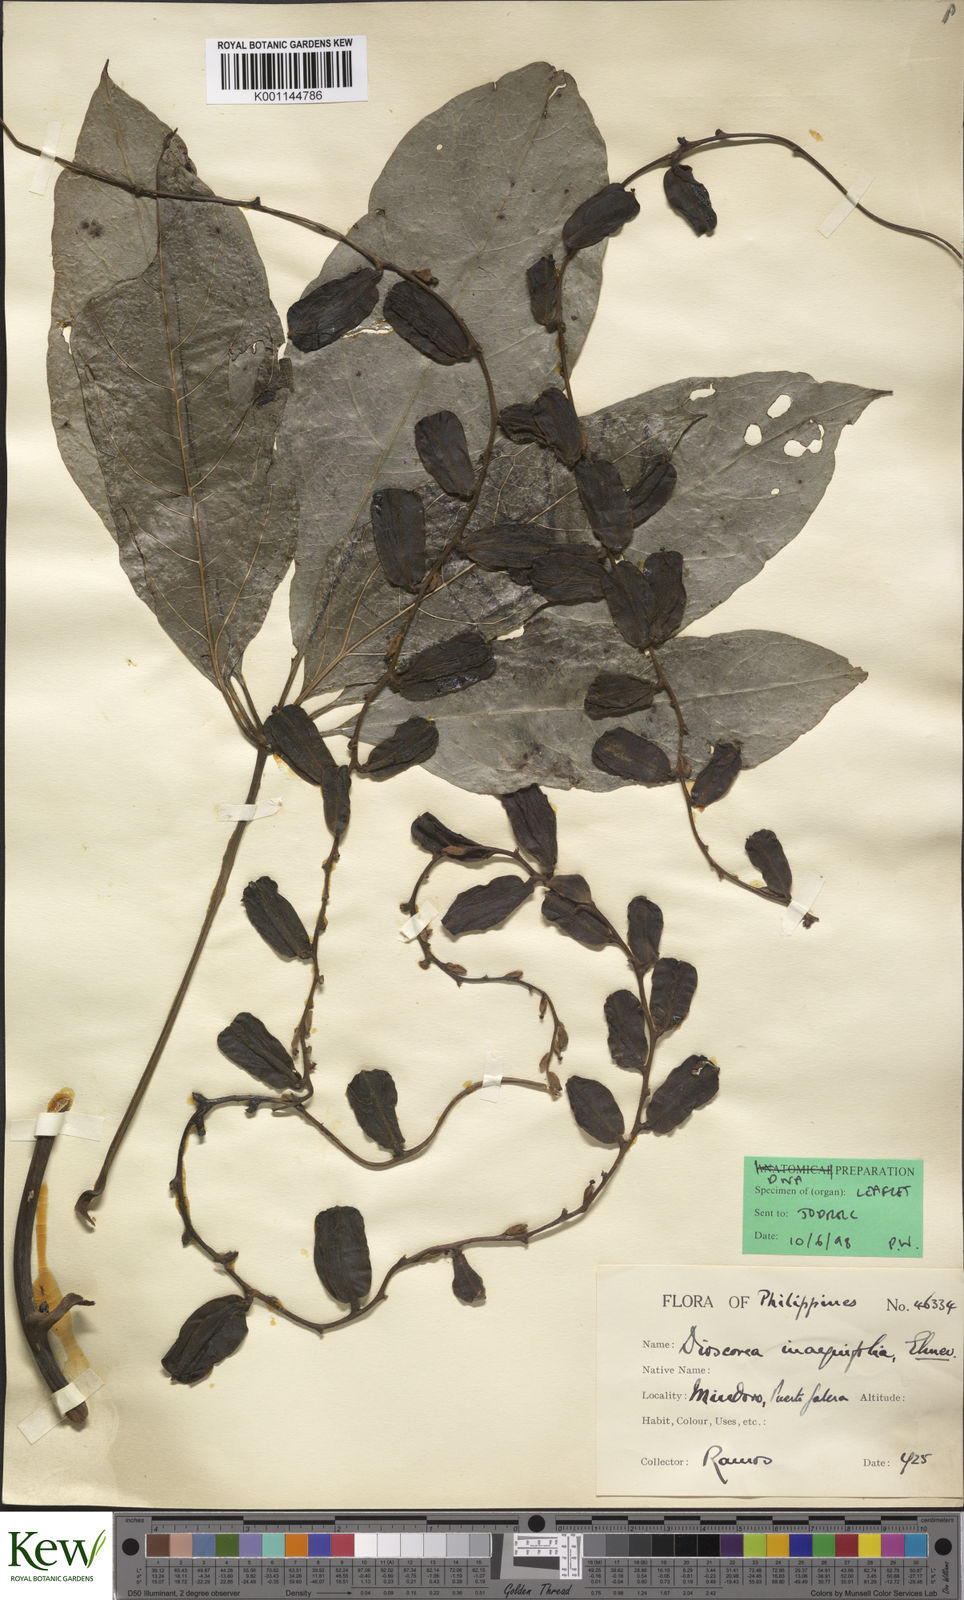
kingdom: Plantae
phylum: Tracheophyta
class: Liliopsida
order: Dioscoreales
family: Dioscoreaceae
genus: Dioscorea
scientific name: Dioscorea cumingii
